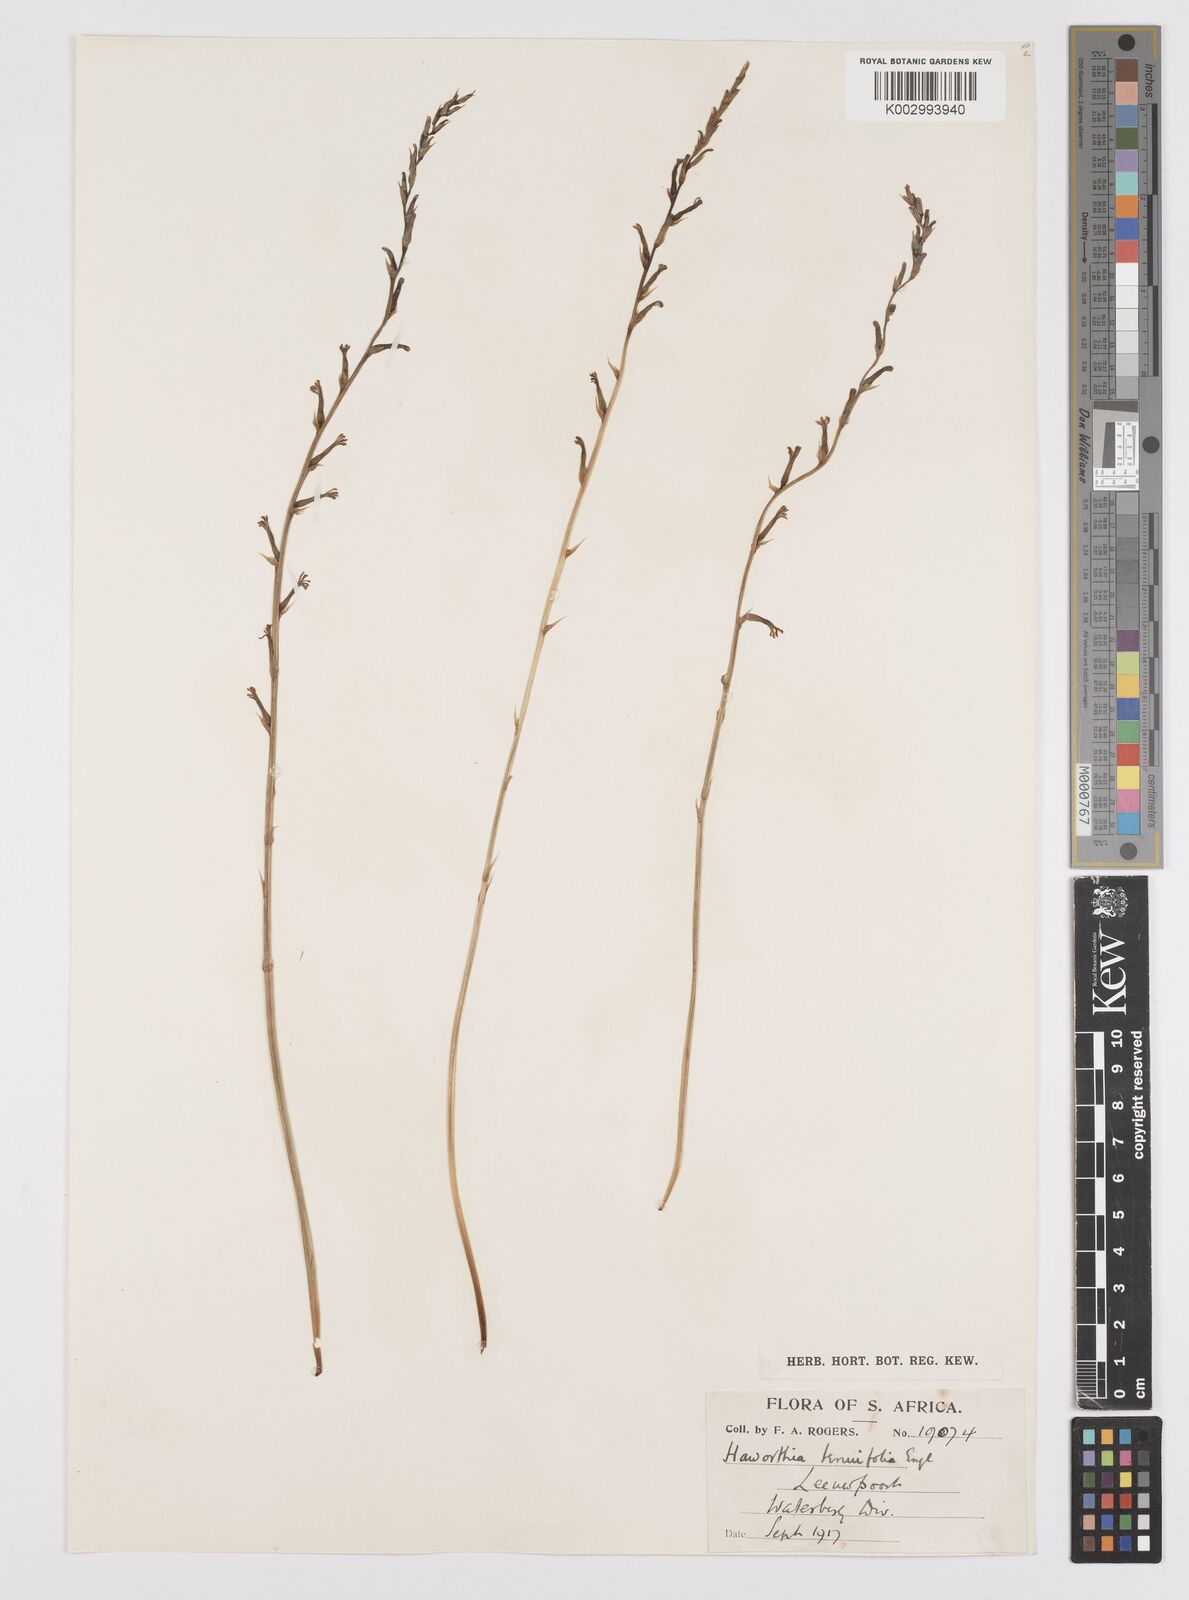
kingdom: Plantae
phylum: Tracheophyta
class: Liliopsida
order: Asparagales
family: Asphodelaceae
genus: Aloe
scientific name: Aloe welwitschii
